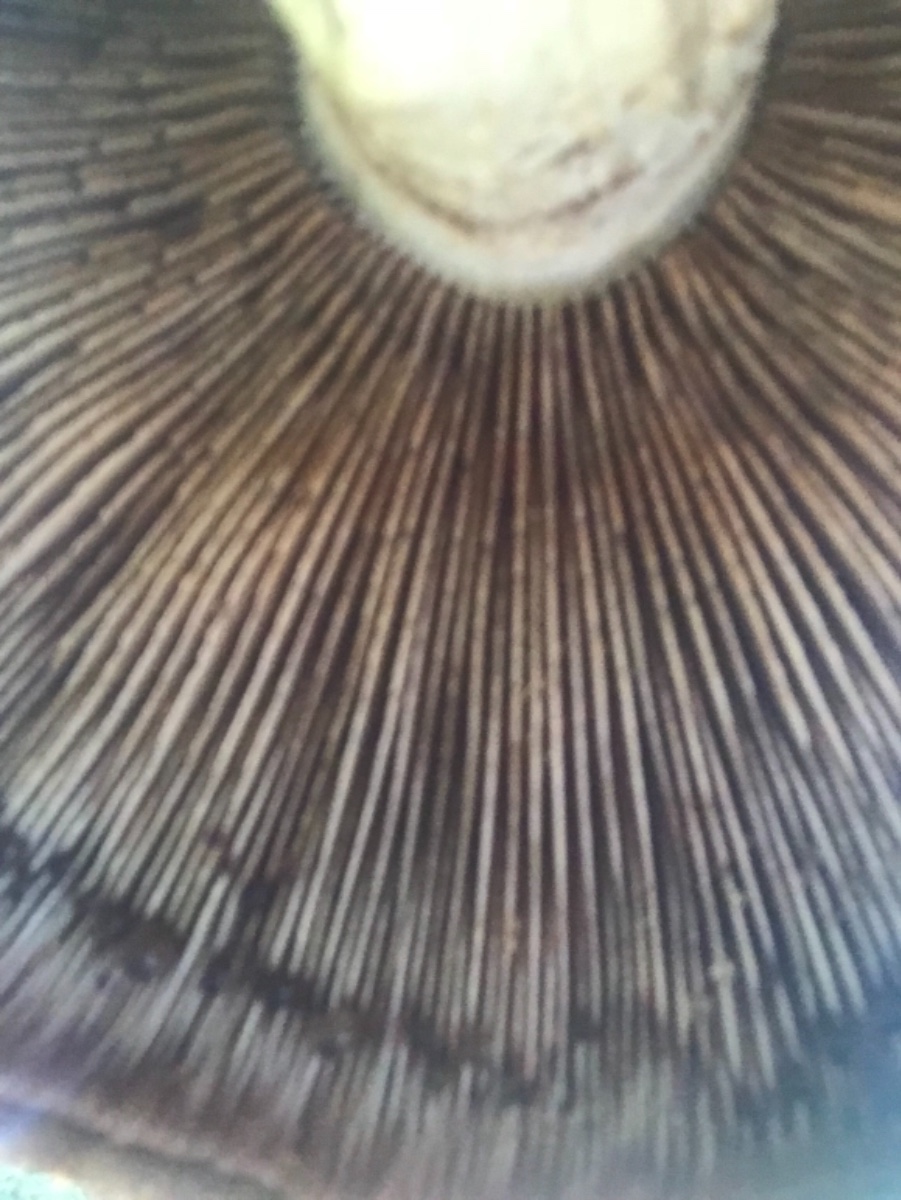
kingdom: Fungi
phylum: Basidiomycota
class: Agaricomycetes
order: Agaricales
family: Strophariaceae
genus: Pholiota
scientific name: Pholiota populnea
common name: poppel-kæmpeskælhat
